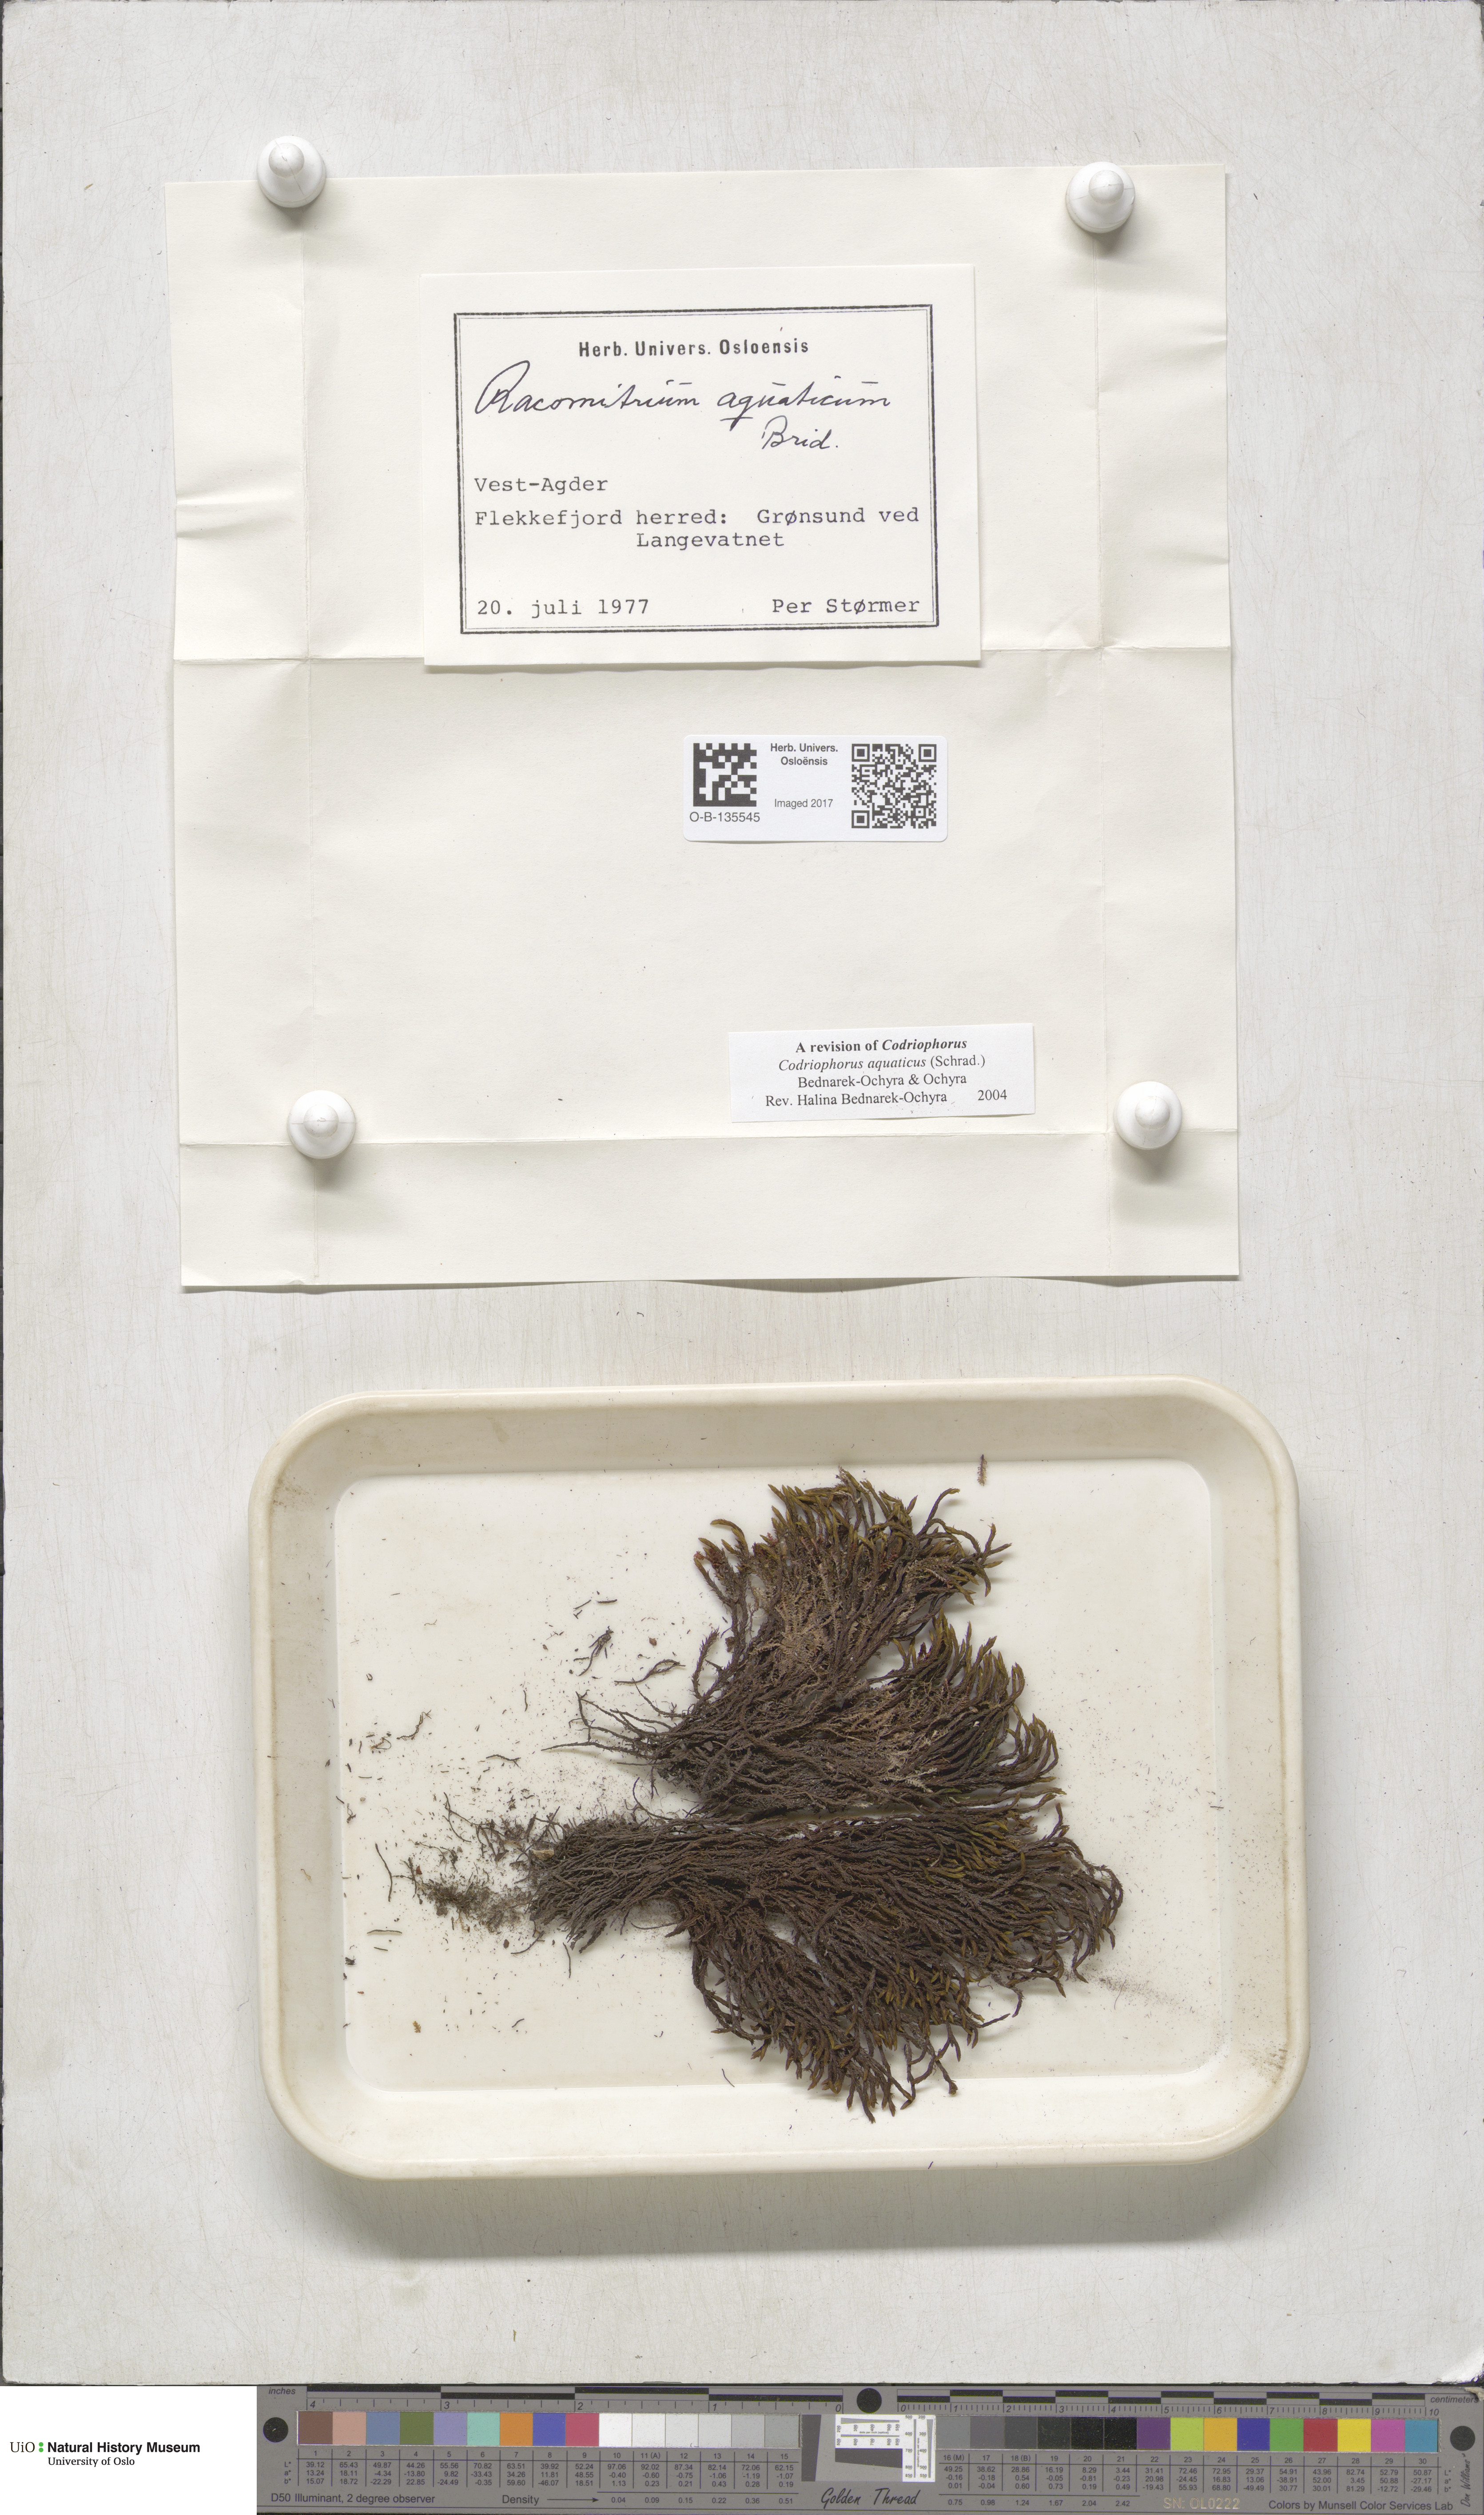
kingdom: Plantae
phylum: Bryophyta
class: Bryopsida
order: Grimmiales
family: Grimmiaceae
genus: Codriophorus
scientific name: Codriophorus aquaticus
